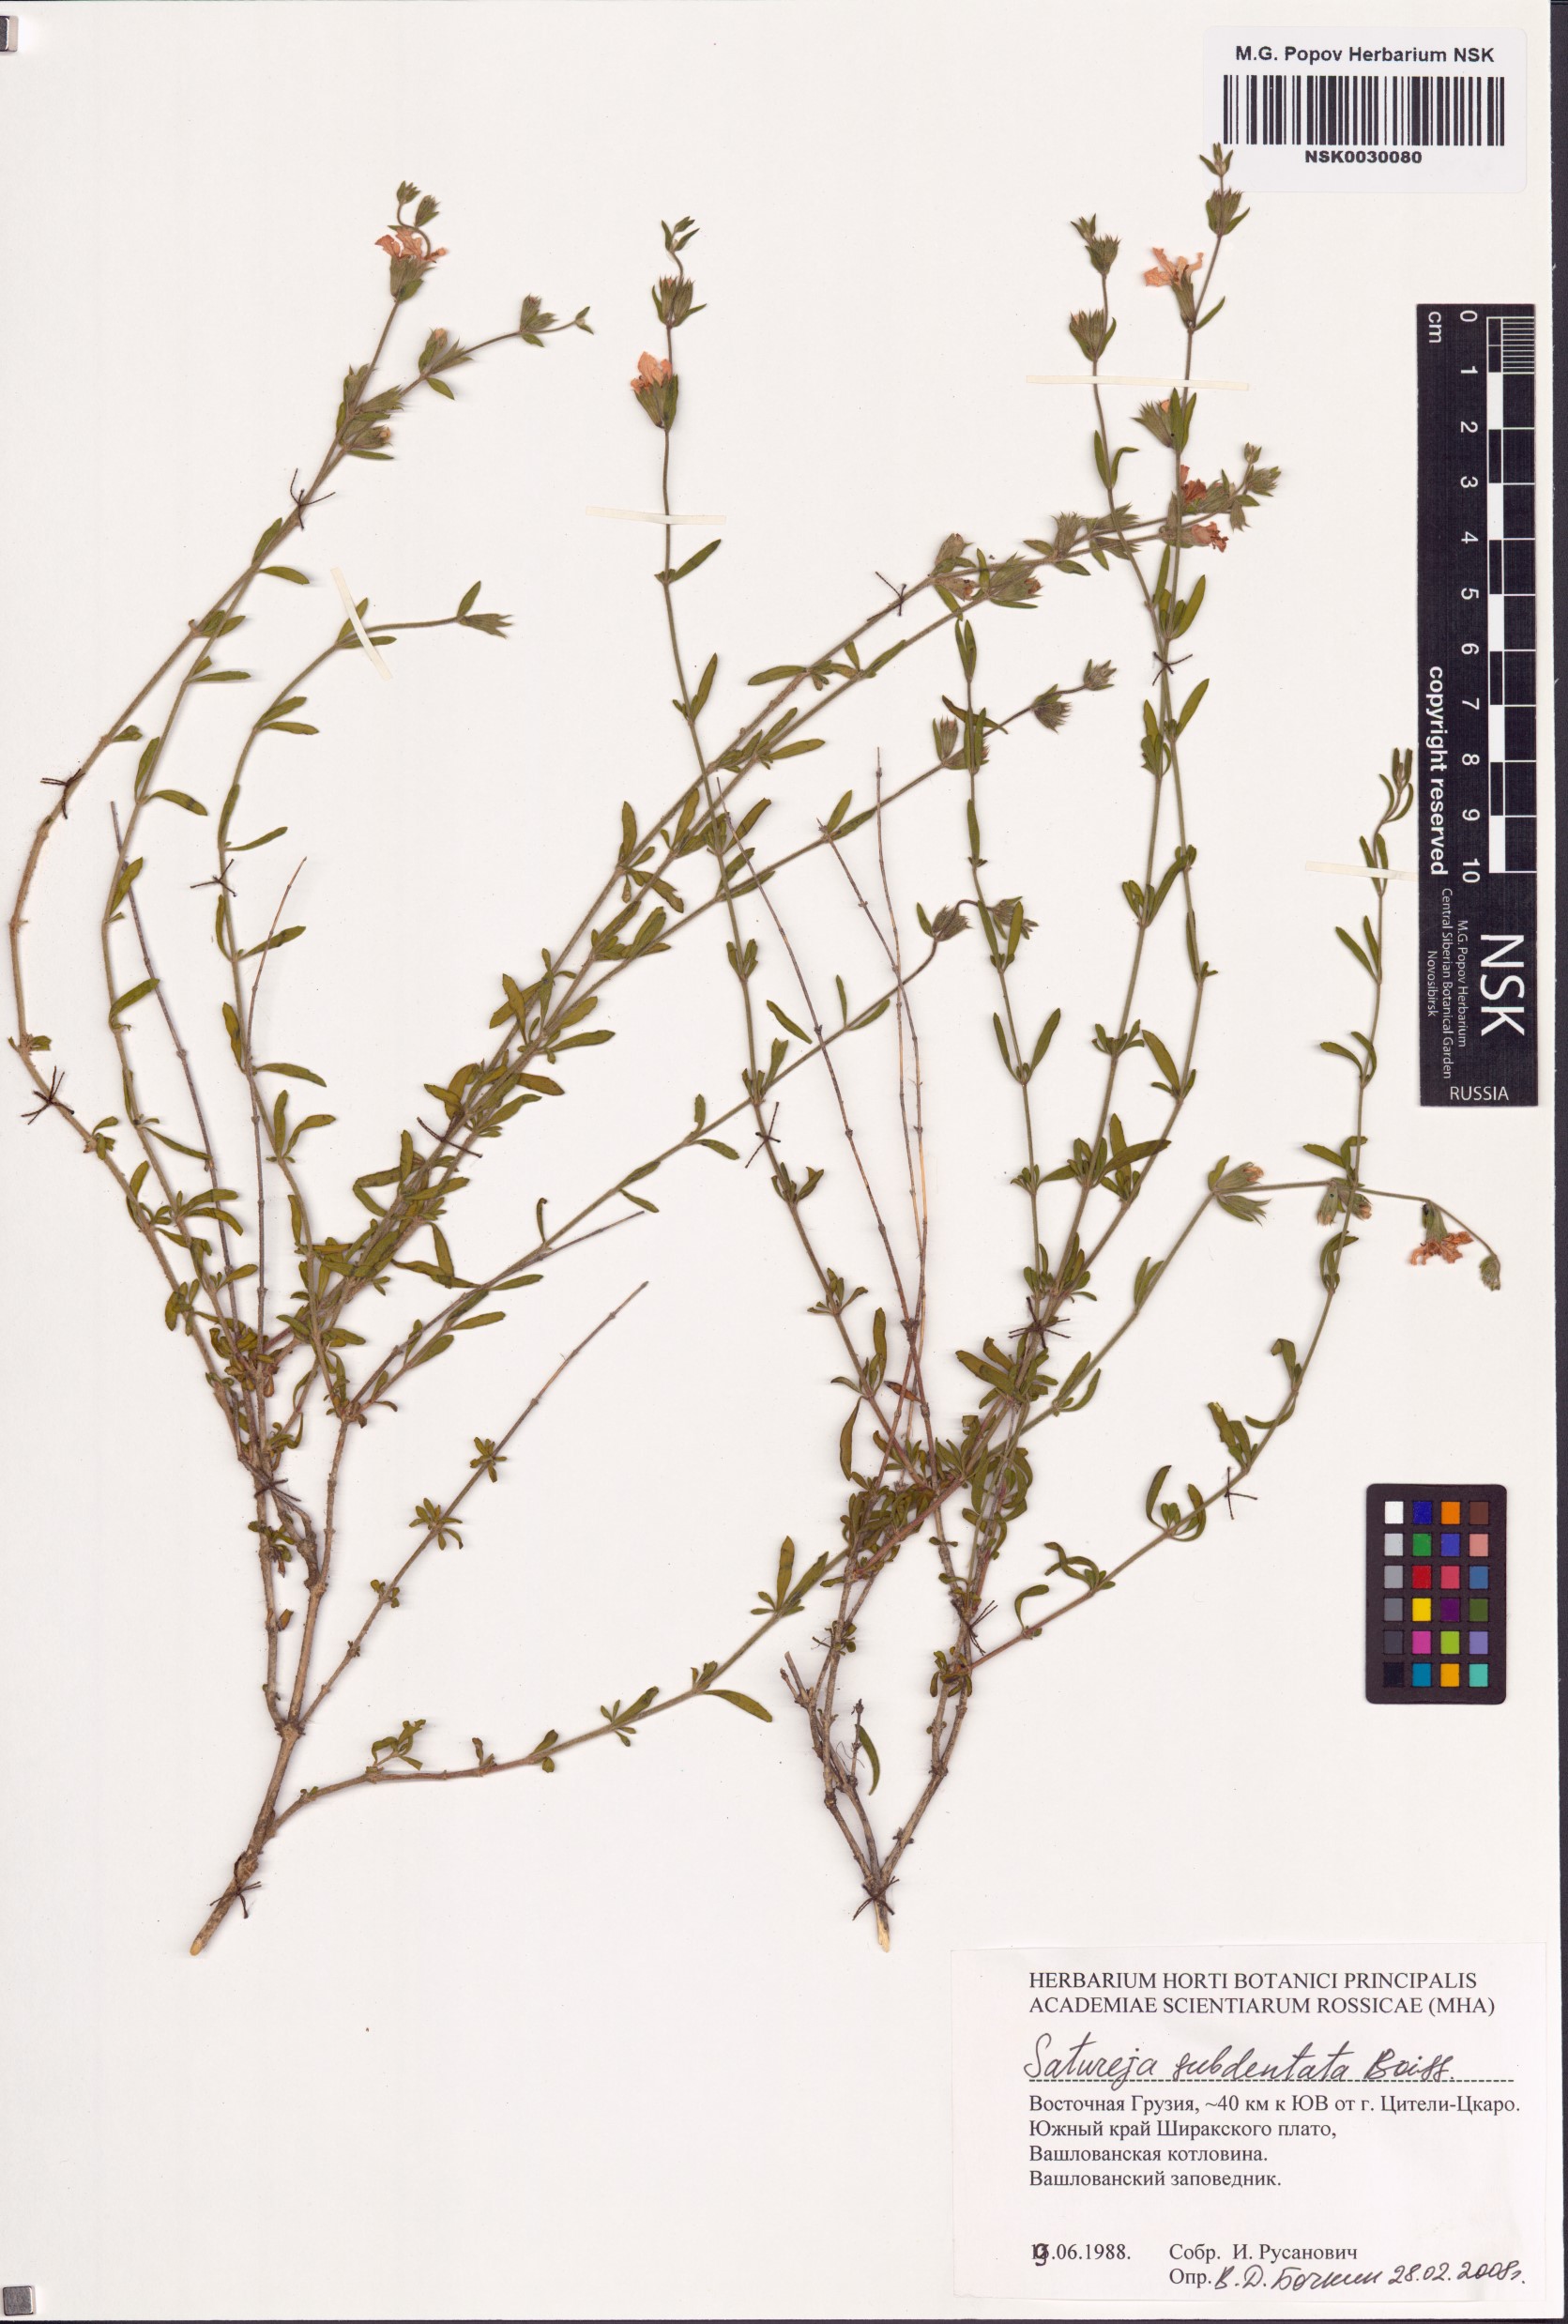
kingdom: Plantae
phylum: Tracheophyta
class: Magnoliopsida
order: Lamiales
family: Lamiaceae
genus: Satureja
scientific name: Satureja intermedia
